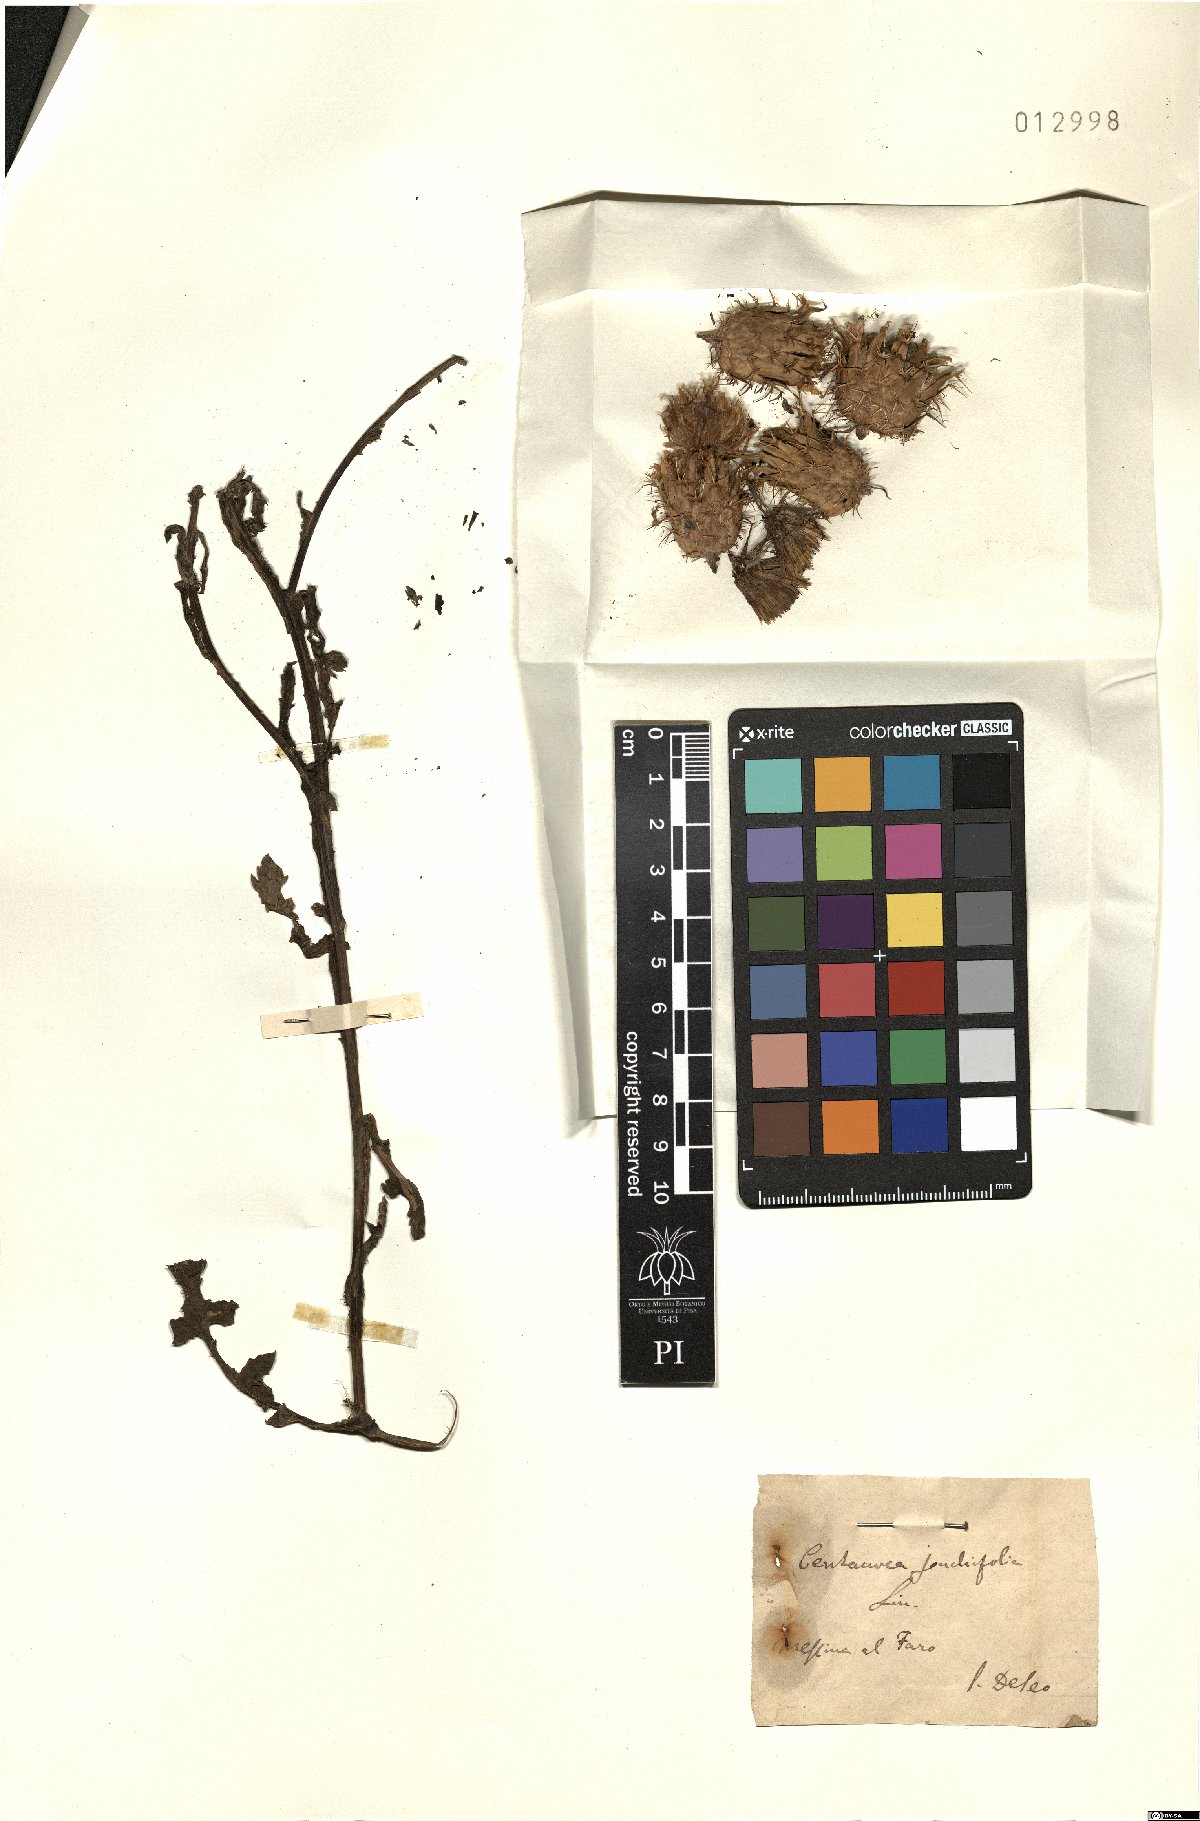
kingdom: Plantae
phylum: Tracheophyta
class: Magnoliopsida
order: Asterales
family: Asteraceae
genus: Centaurea
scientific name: Centaurea seridis
